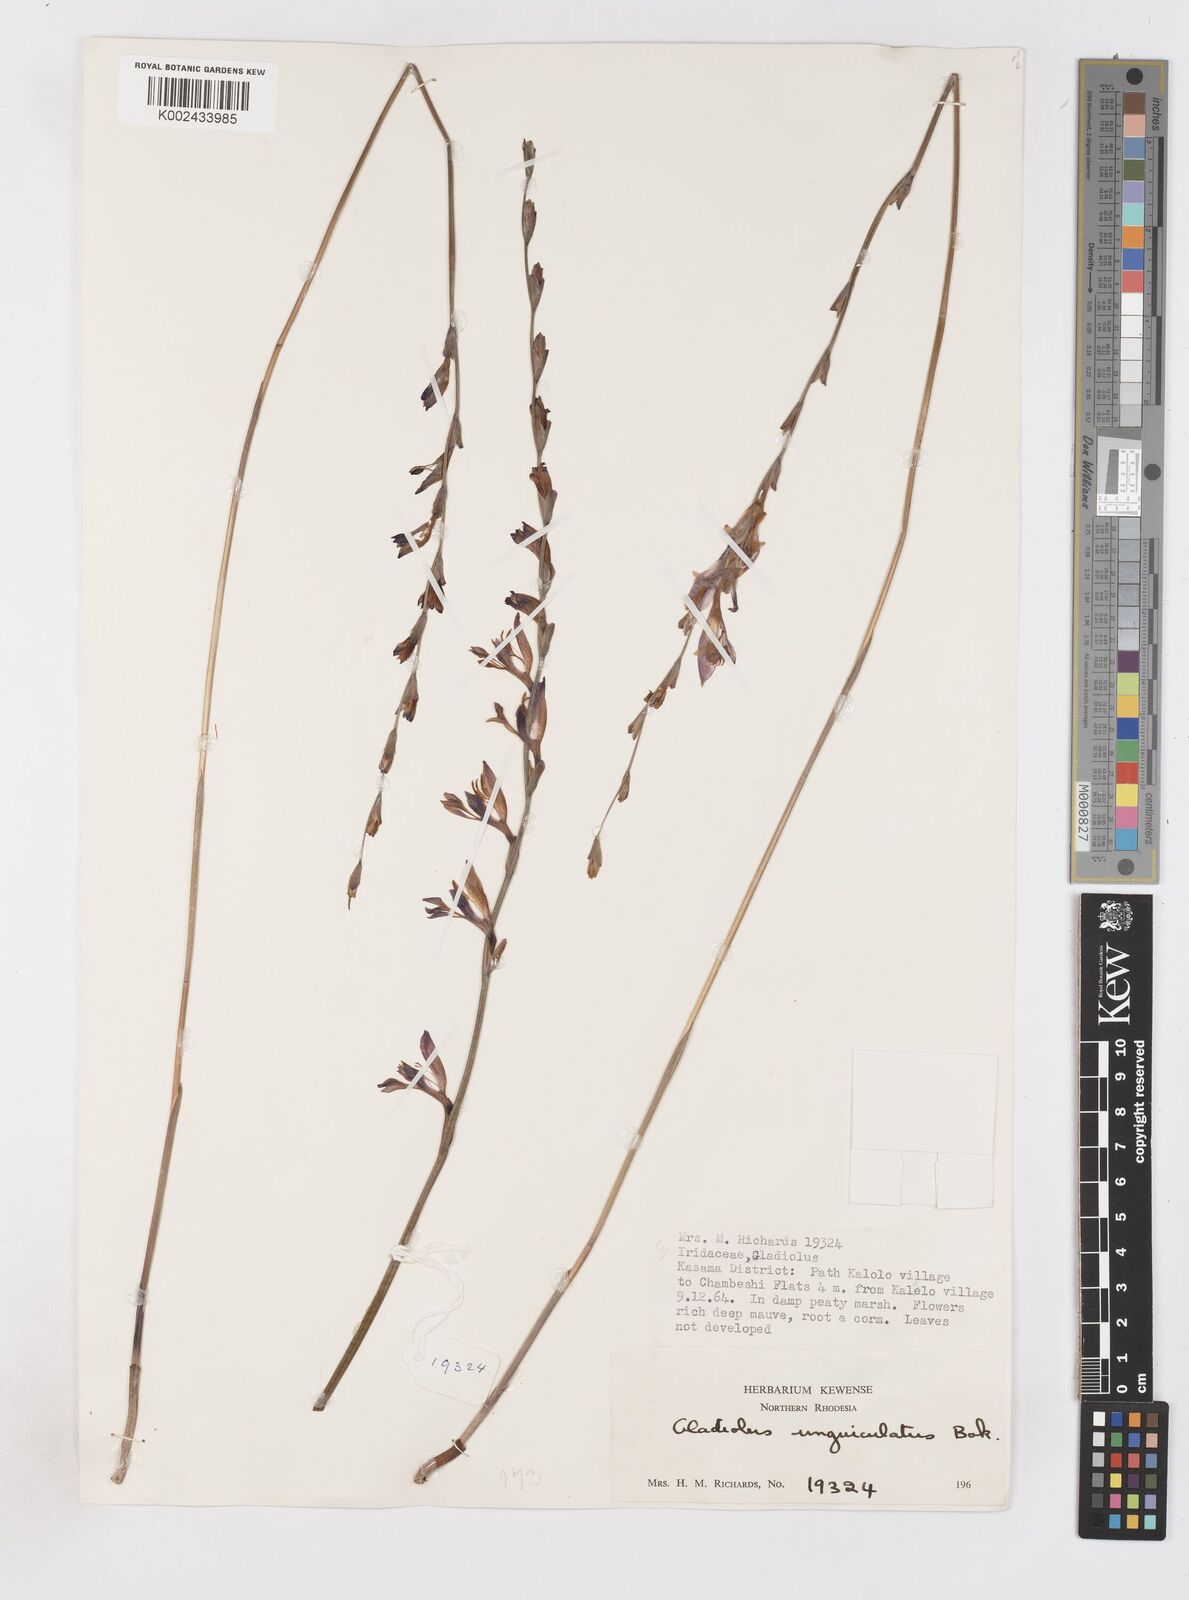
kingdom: Plantae
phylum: Tracheophyta
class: Liliopsida
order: Asparagales
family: Iridaceae
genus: Gladiolus
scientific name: Gladiolus atropurpureus
